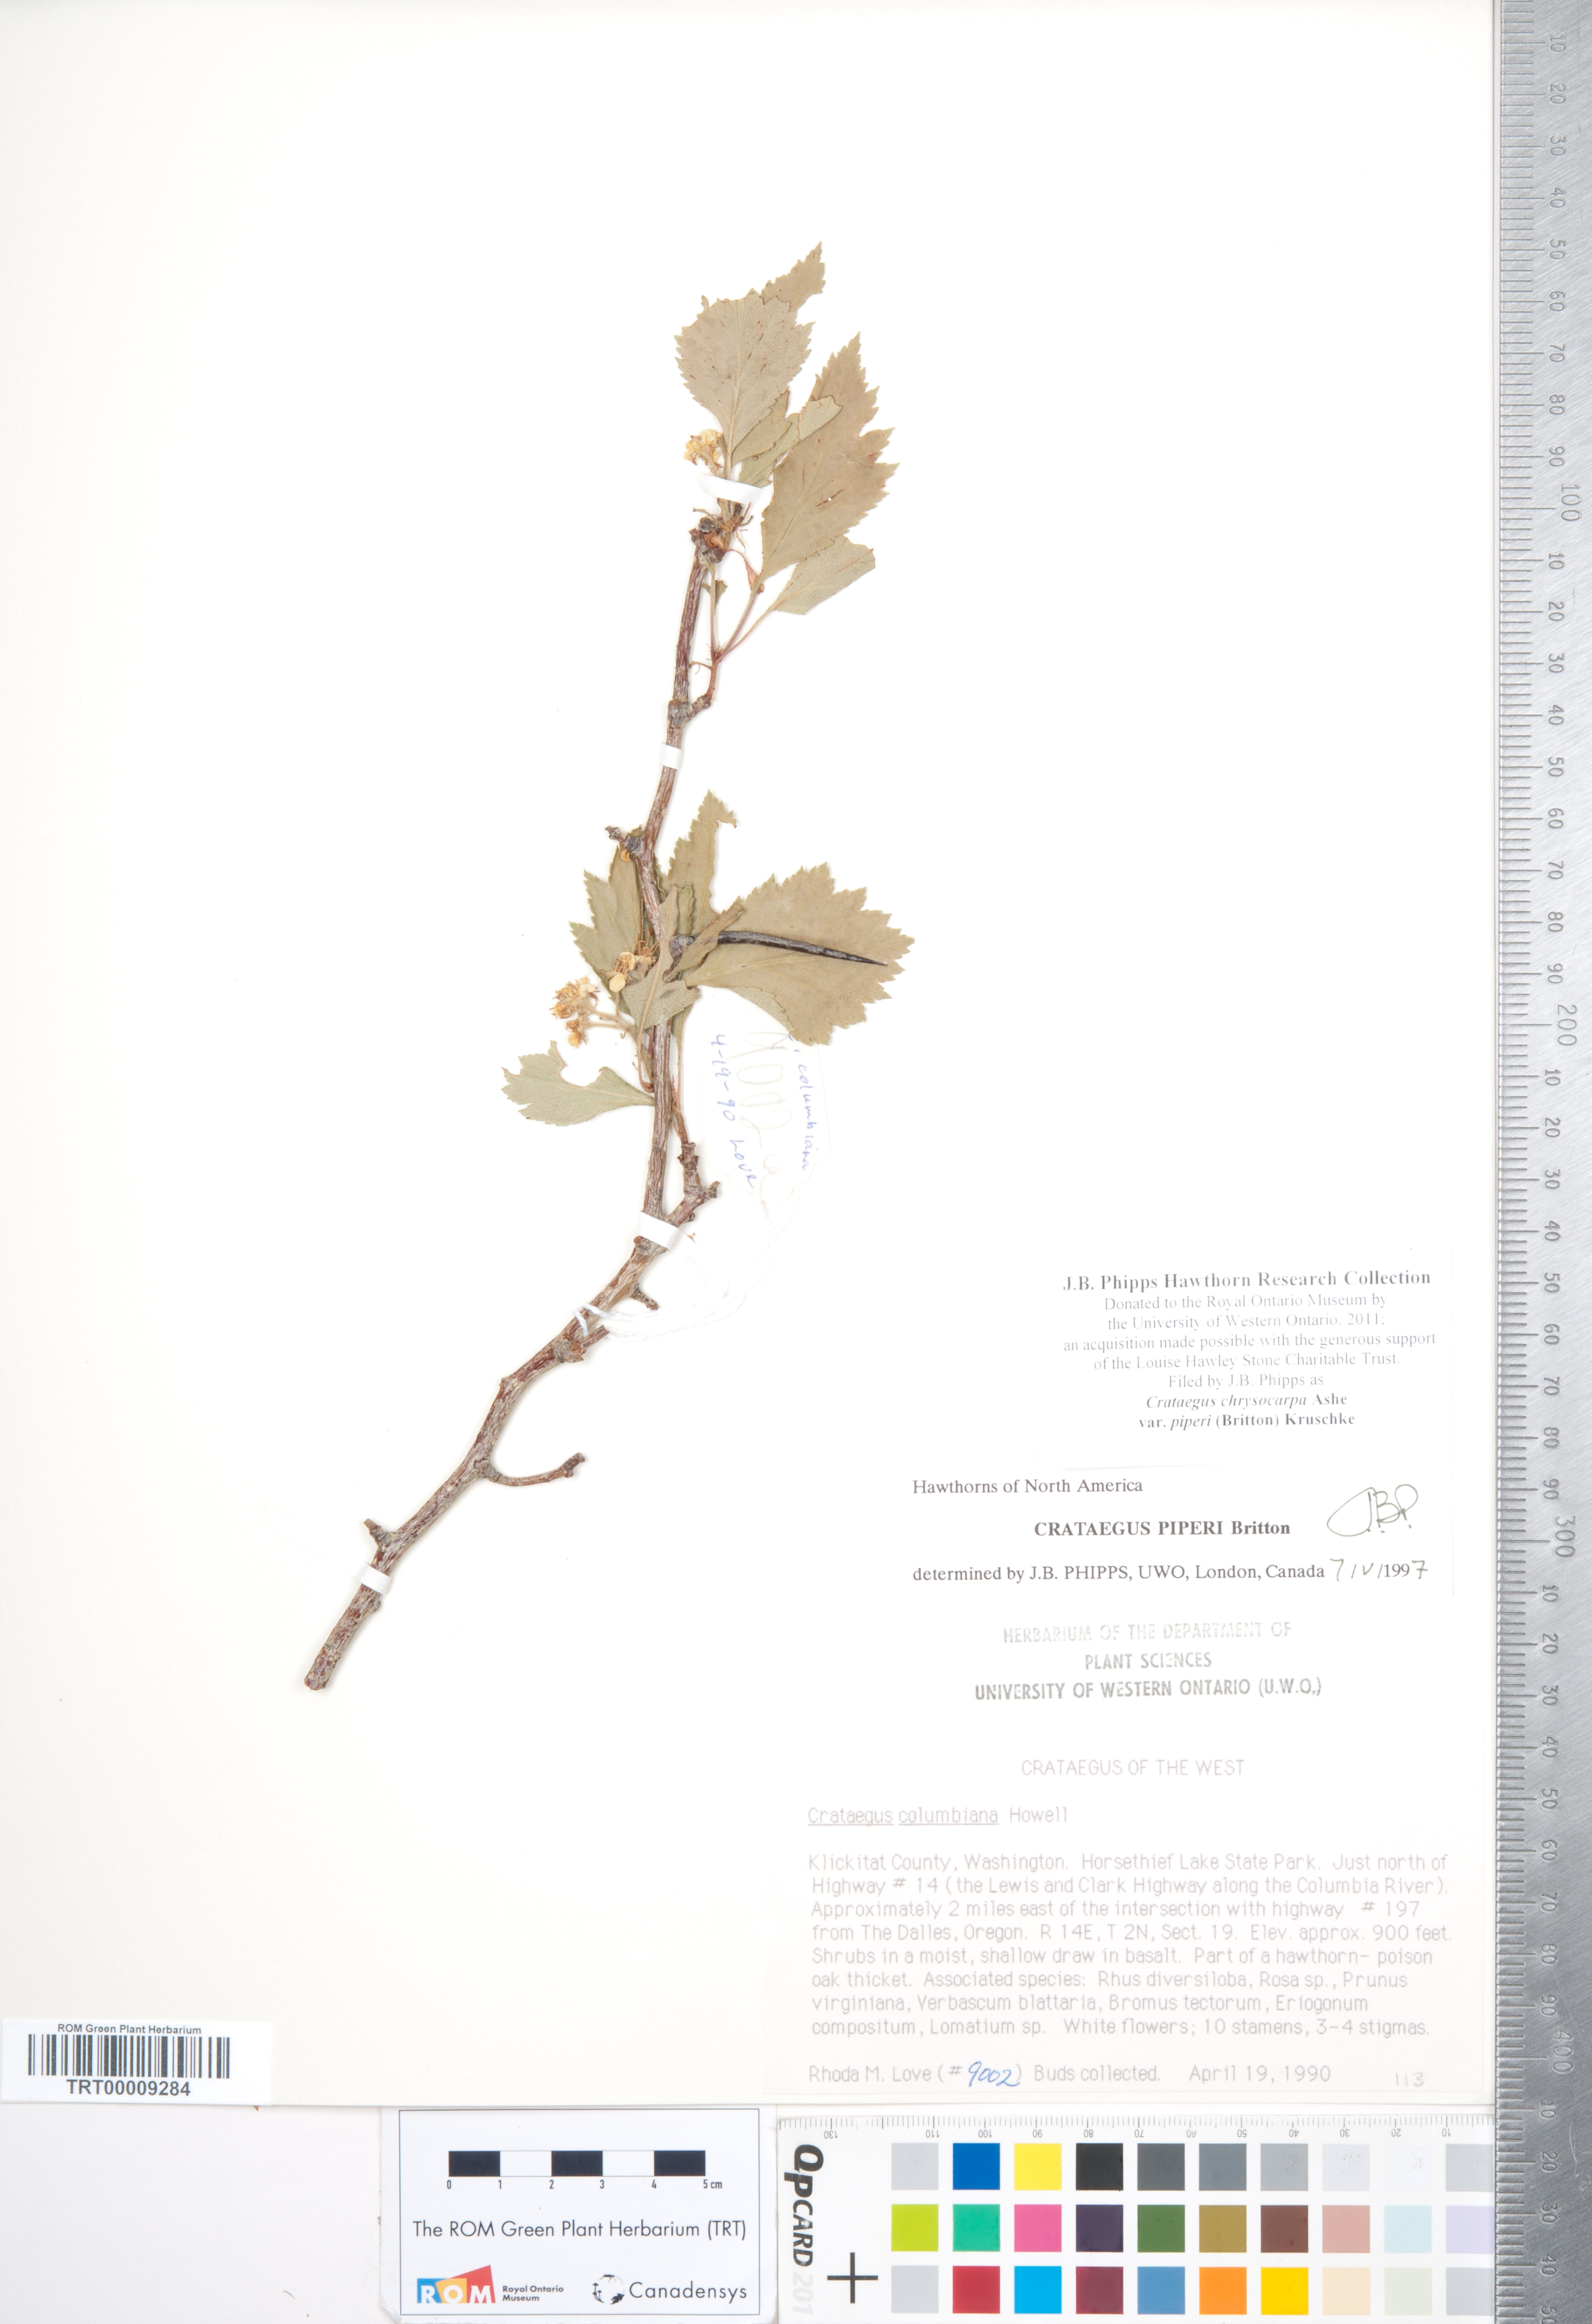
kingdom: Plantae
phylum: Tracheophyta
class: Magnoliopsida
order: Rosales
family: Rosaceae
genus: Crataegus
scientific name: Crataegus piperi
